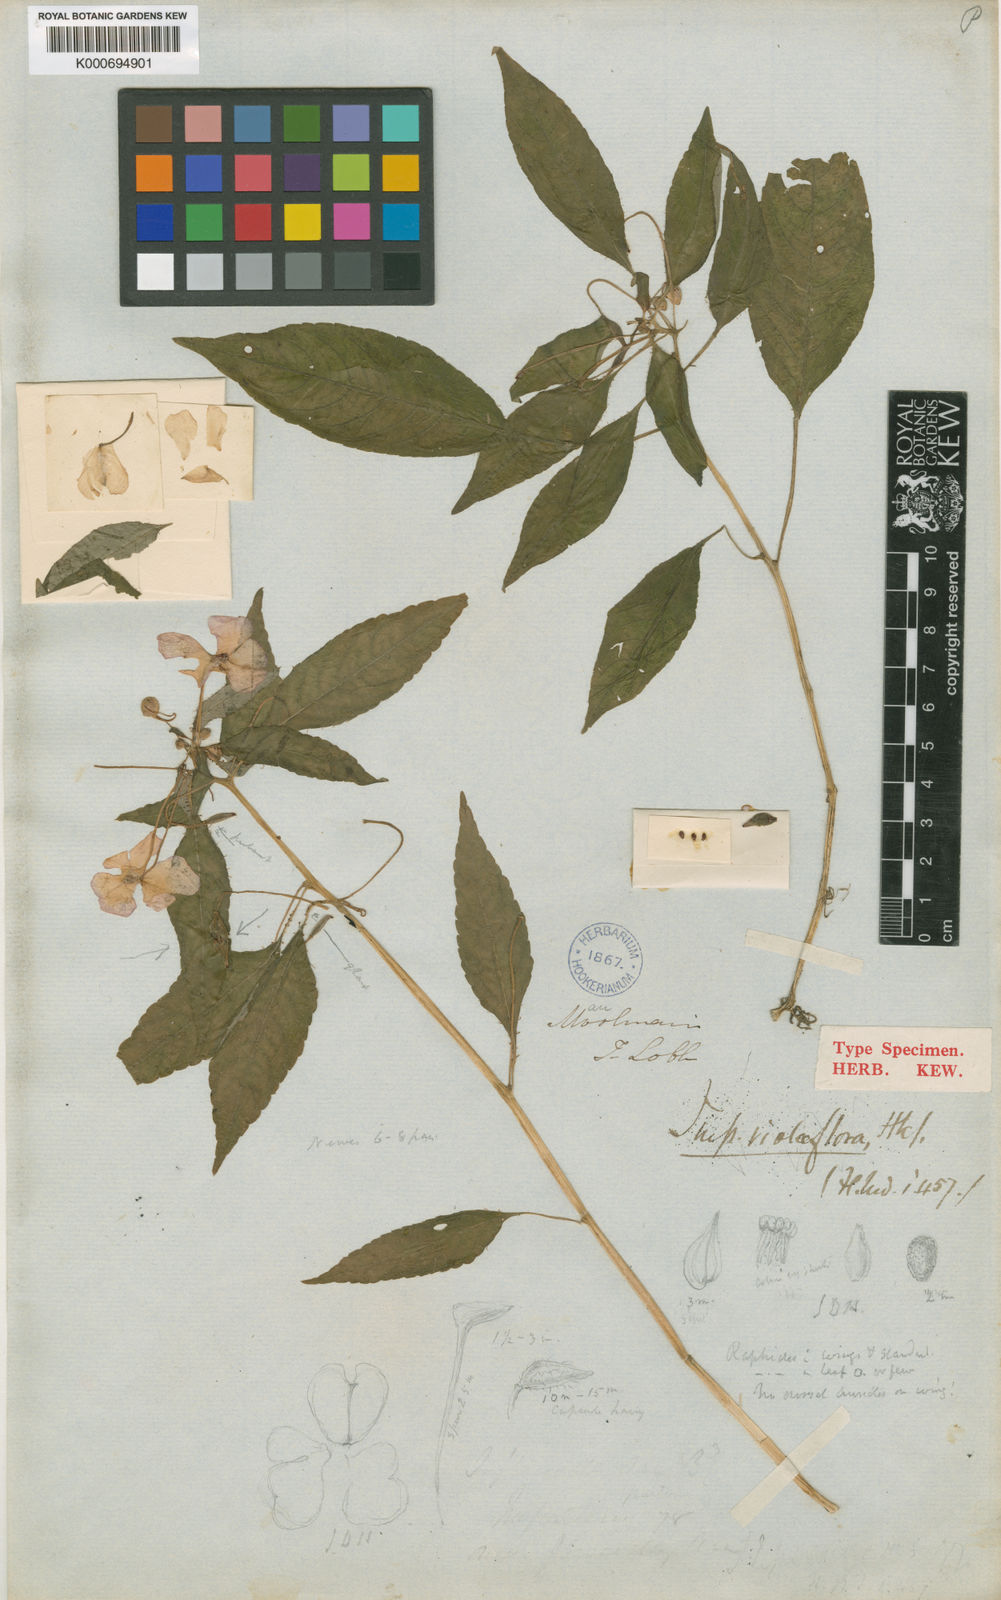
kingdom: Plantae
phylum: Tracheophyta
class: Magnoliopsida
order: Ericales
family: Balsaminaceae
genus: Impatiens
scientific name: Impatiens violiflora
